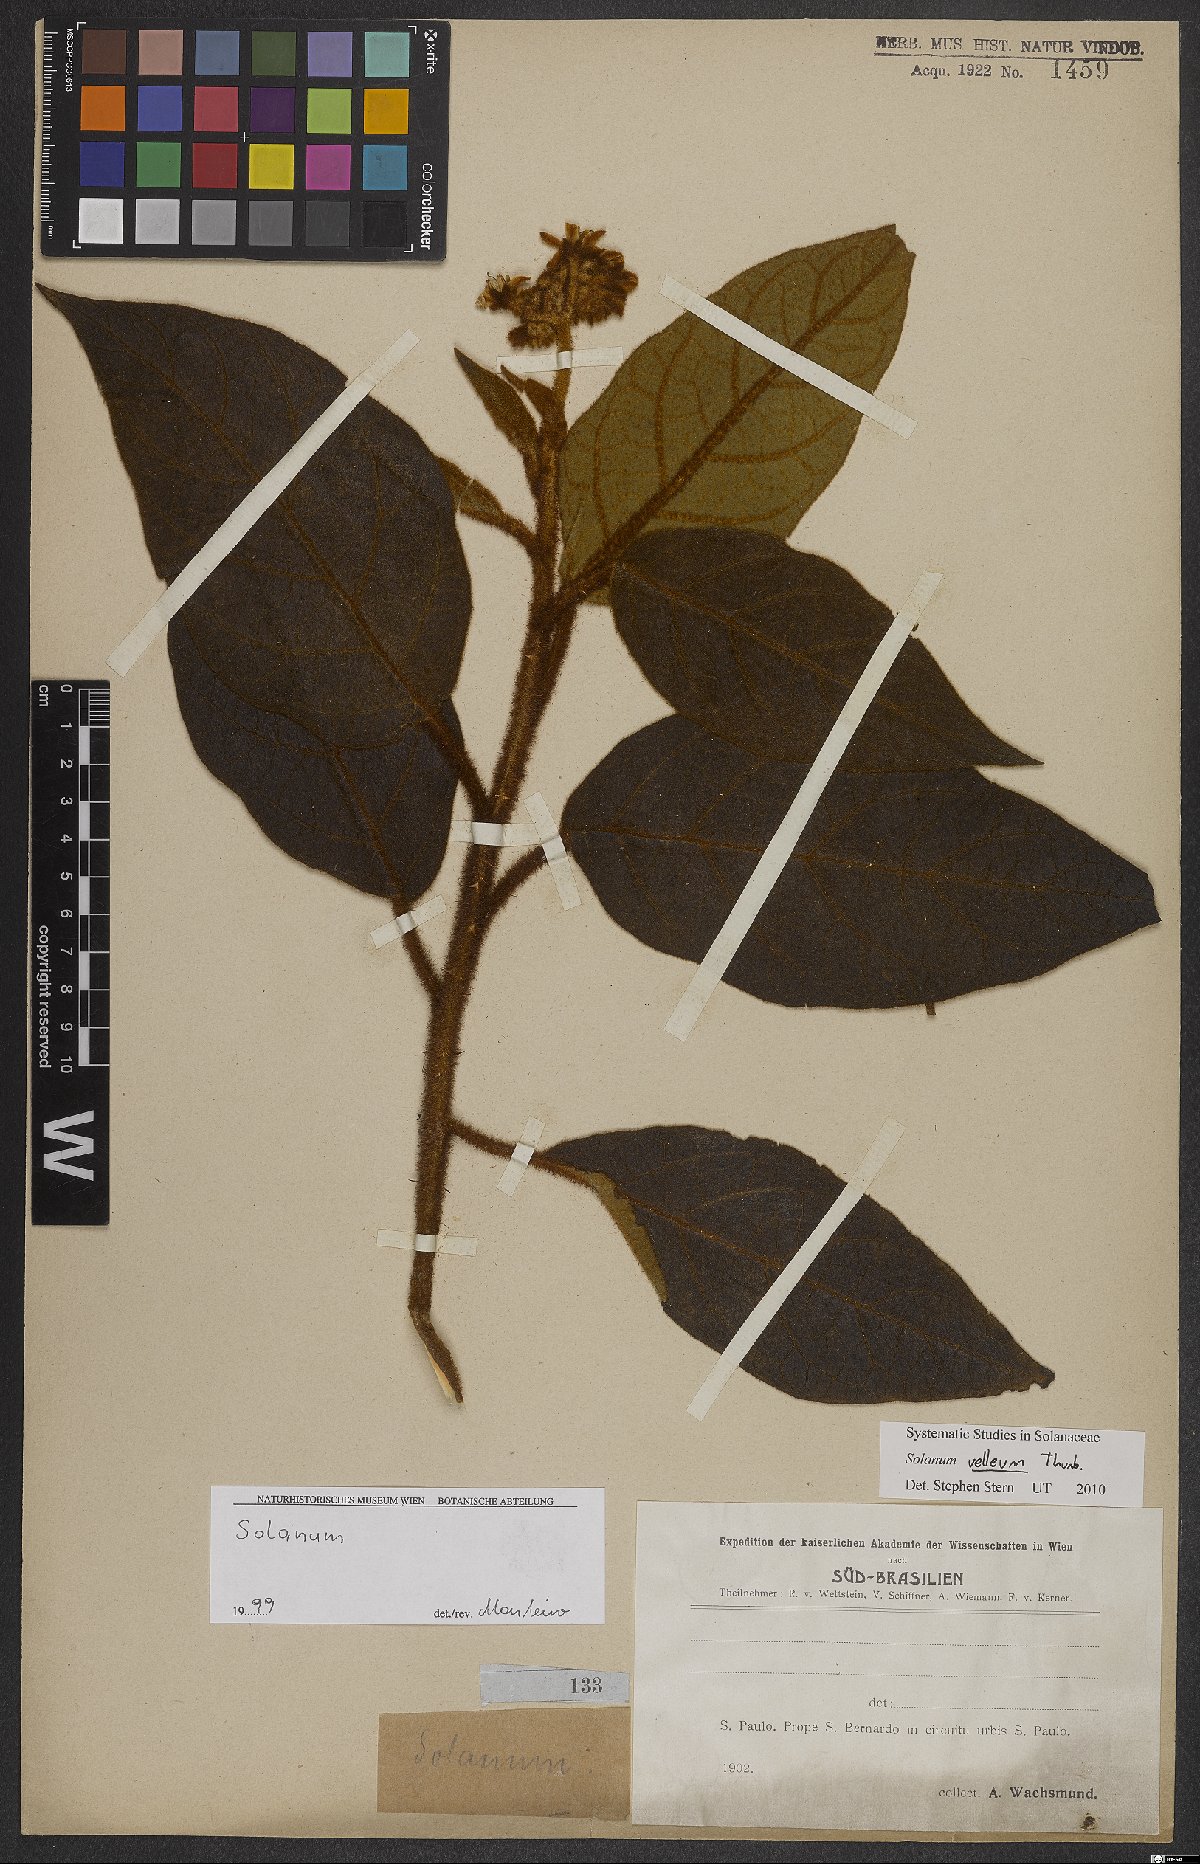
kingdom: Plantae
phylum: Tracheophyta
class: Magnoliopsida
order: Solanales
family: Solanaceae
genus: Solanum
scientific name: Solanum velleum
